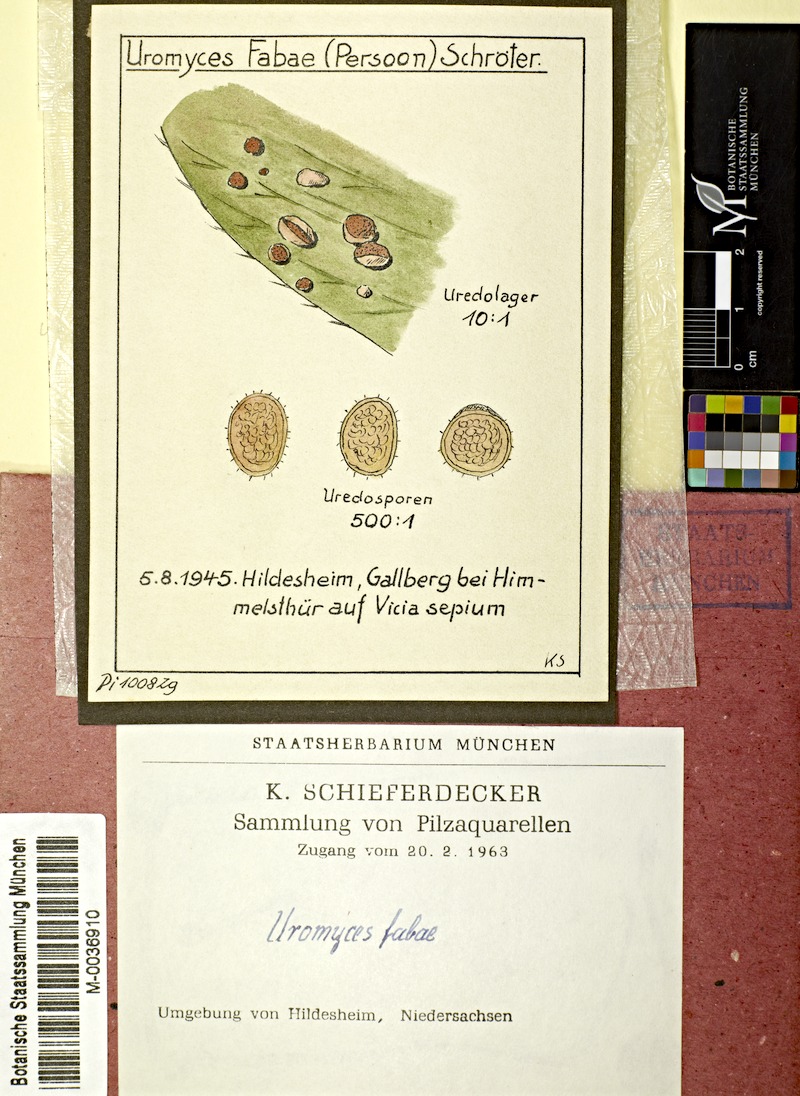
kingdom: Plantae
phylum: Tracheophyta
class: Magnoliopsida
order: Fabales
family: Fabaceae
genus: Vicia
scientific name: Vicia sepium
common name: Bush vetch
